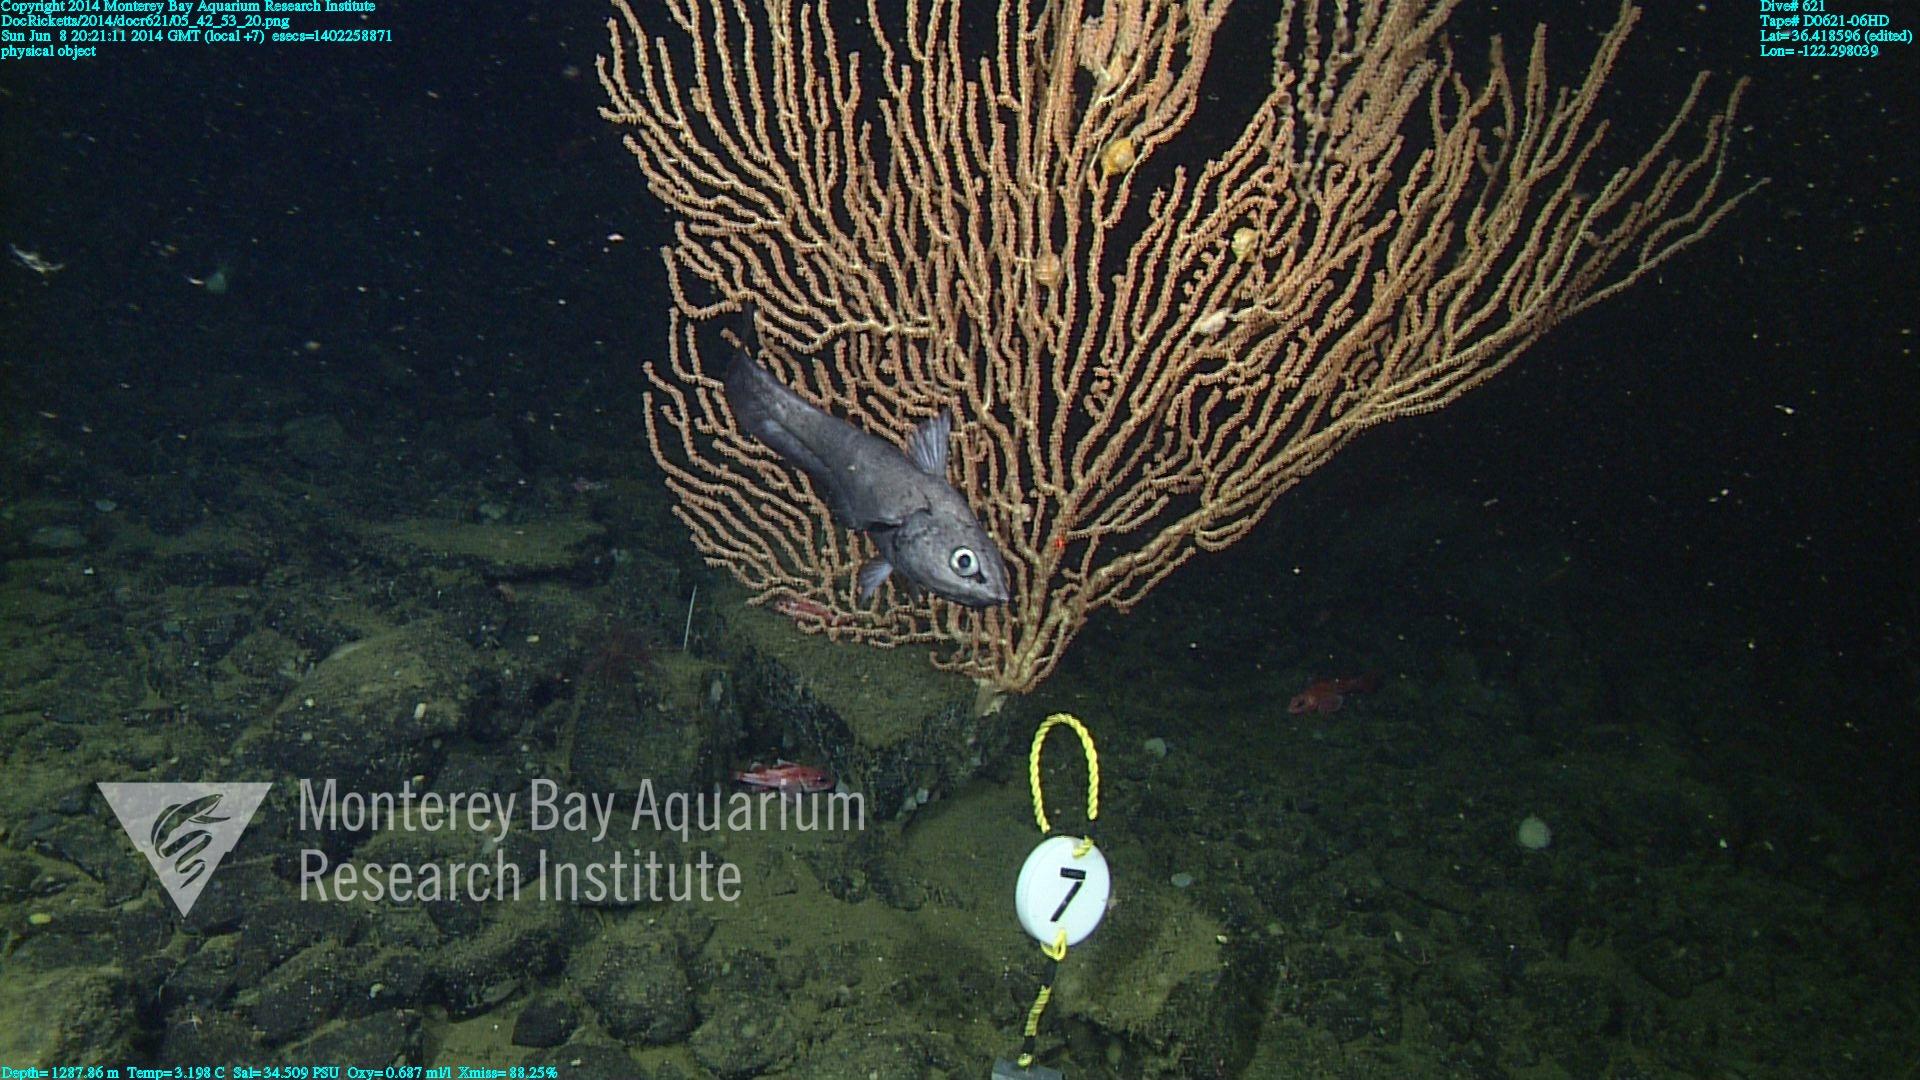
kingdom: Animalia
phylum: Cnidaria
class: Anthozoa
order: Scleralcyonacea
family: Keratoisididae
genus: Keratoisis
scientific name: Keratoisis
